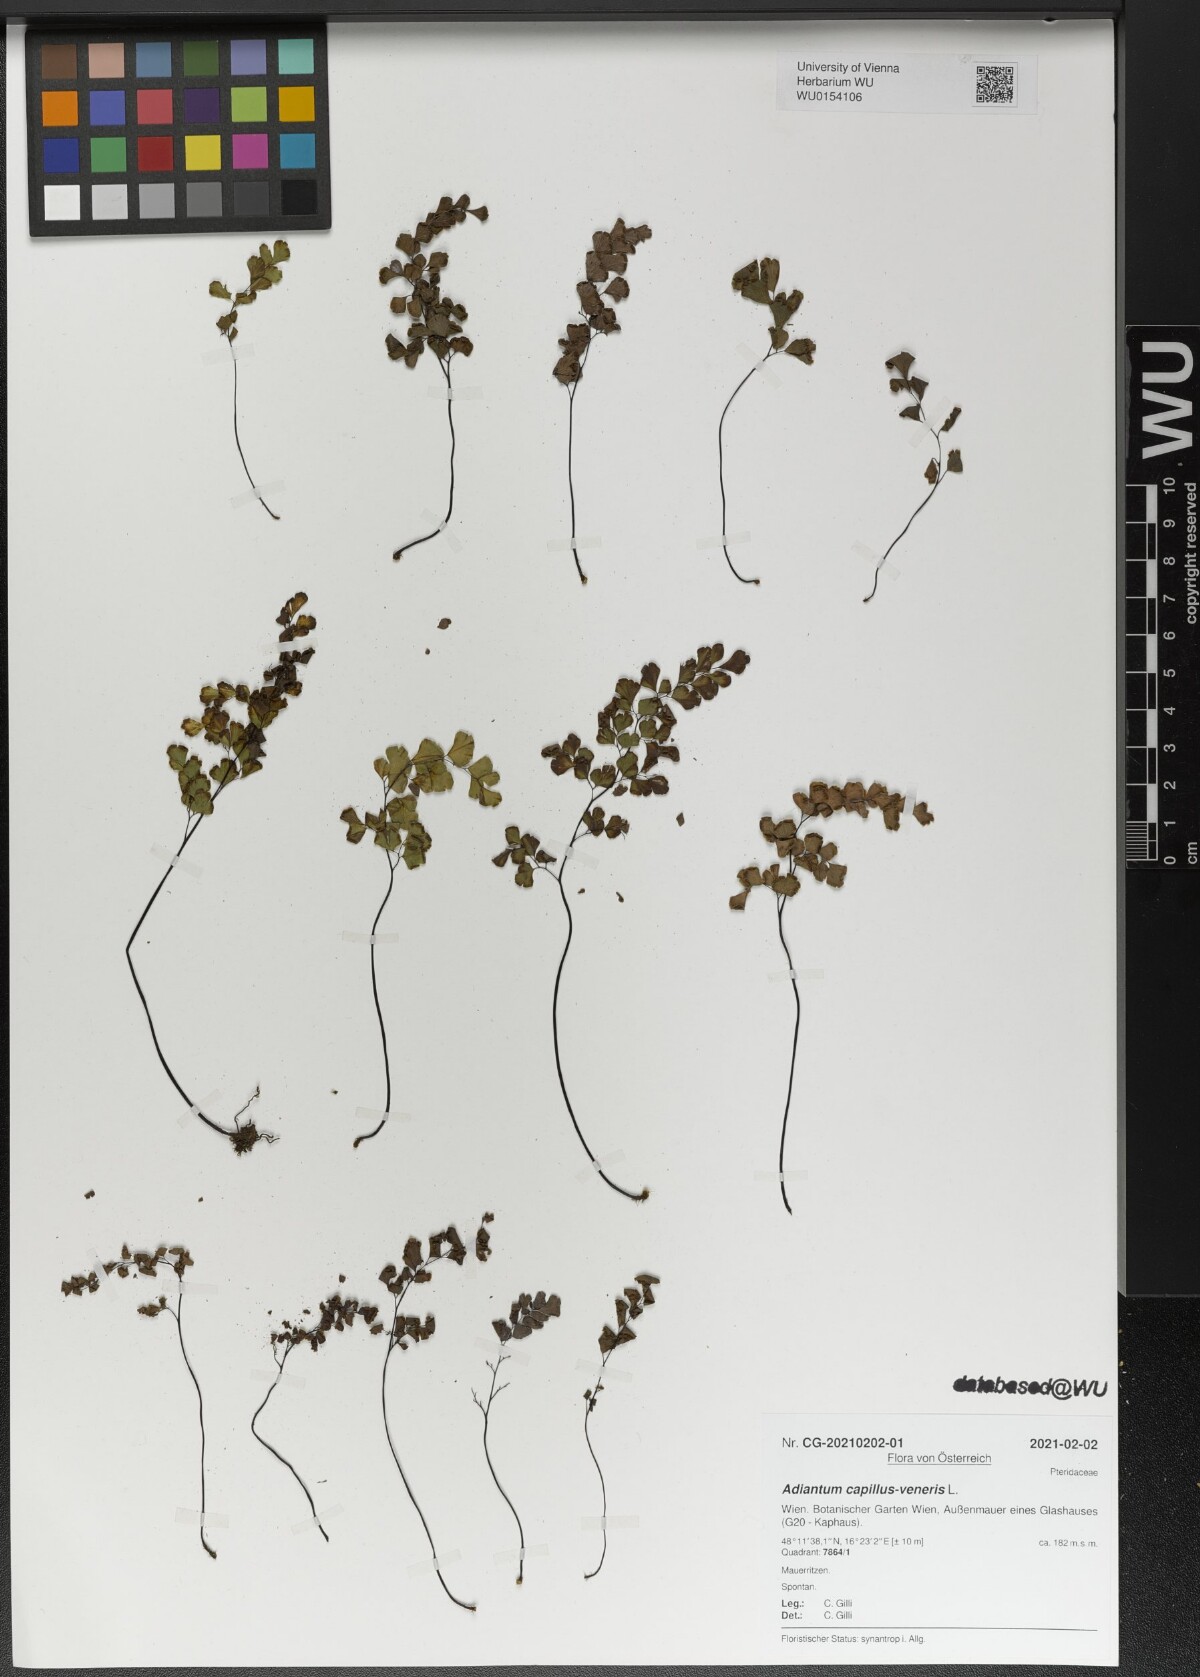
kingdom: Plantae
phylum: Tracheophyta
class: Polypodiopsida
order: Polypodiales
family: Pteridaceae
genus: Adiantum
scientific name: Adiantum capillus-veneris
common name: Maidenhair fern
